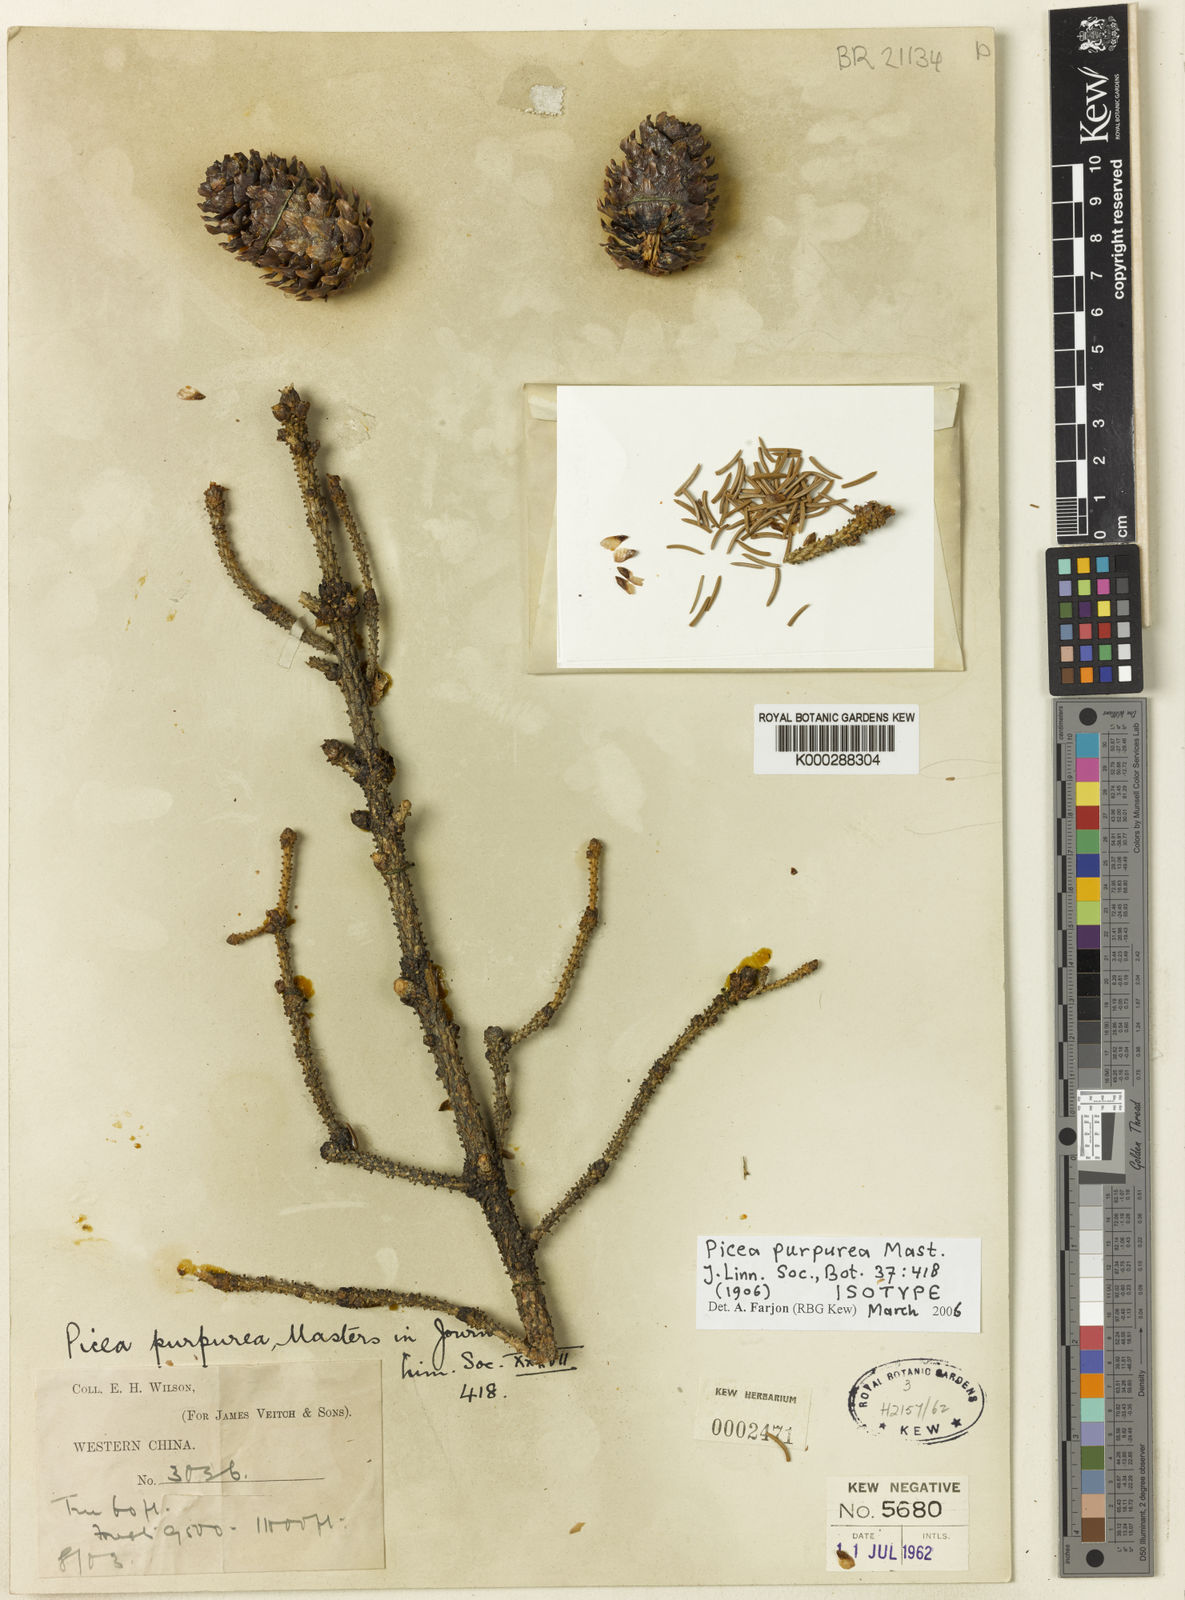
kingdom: Plantae
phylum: Tracheophyta
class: Pinopsida
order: Pinales
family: Pinaceae
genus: Picea
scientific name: Picea purpurea
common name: Purple cone spruce
